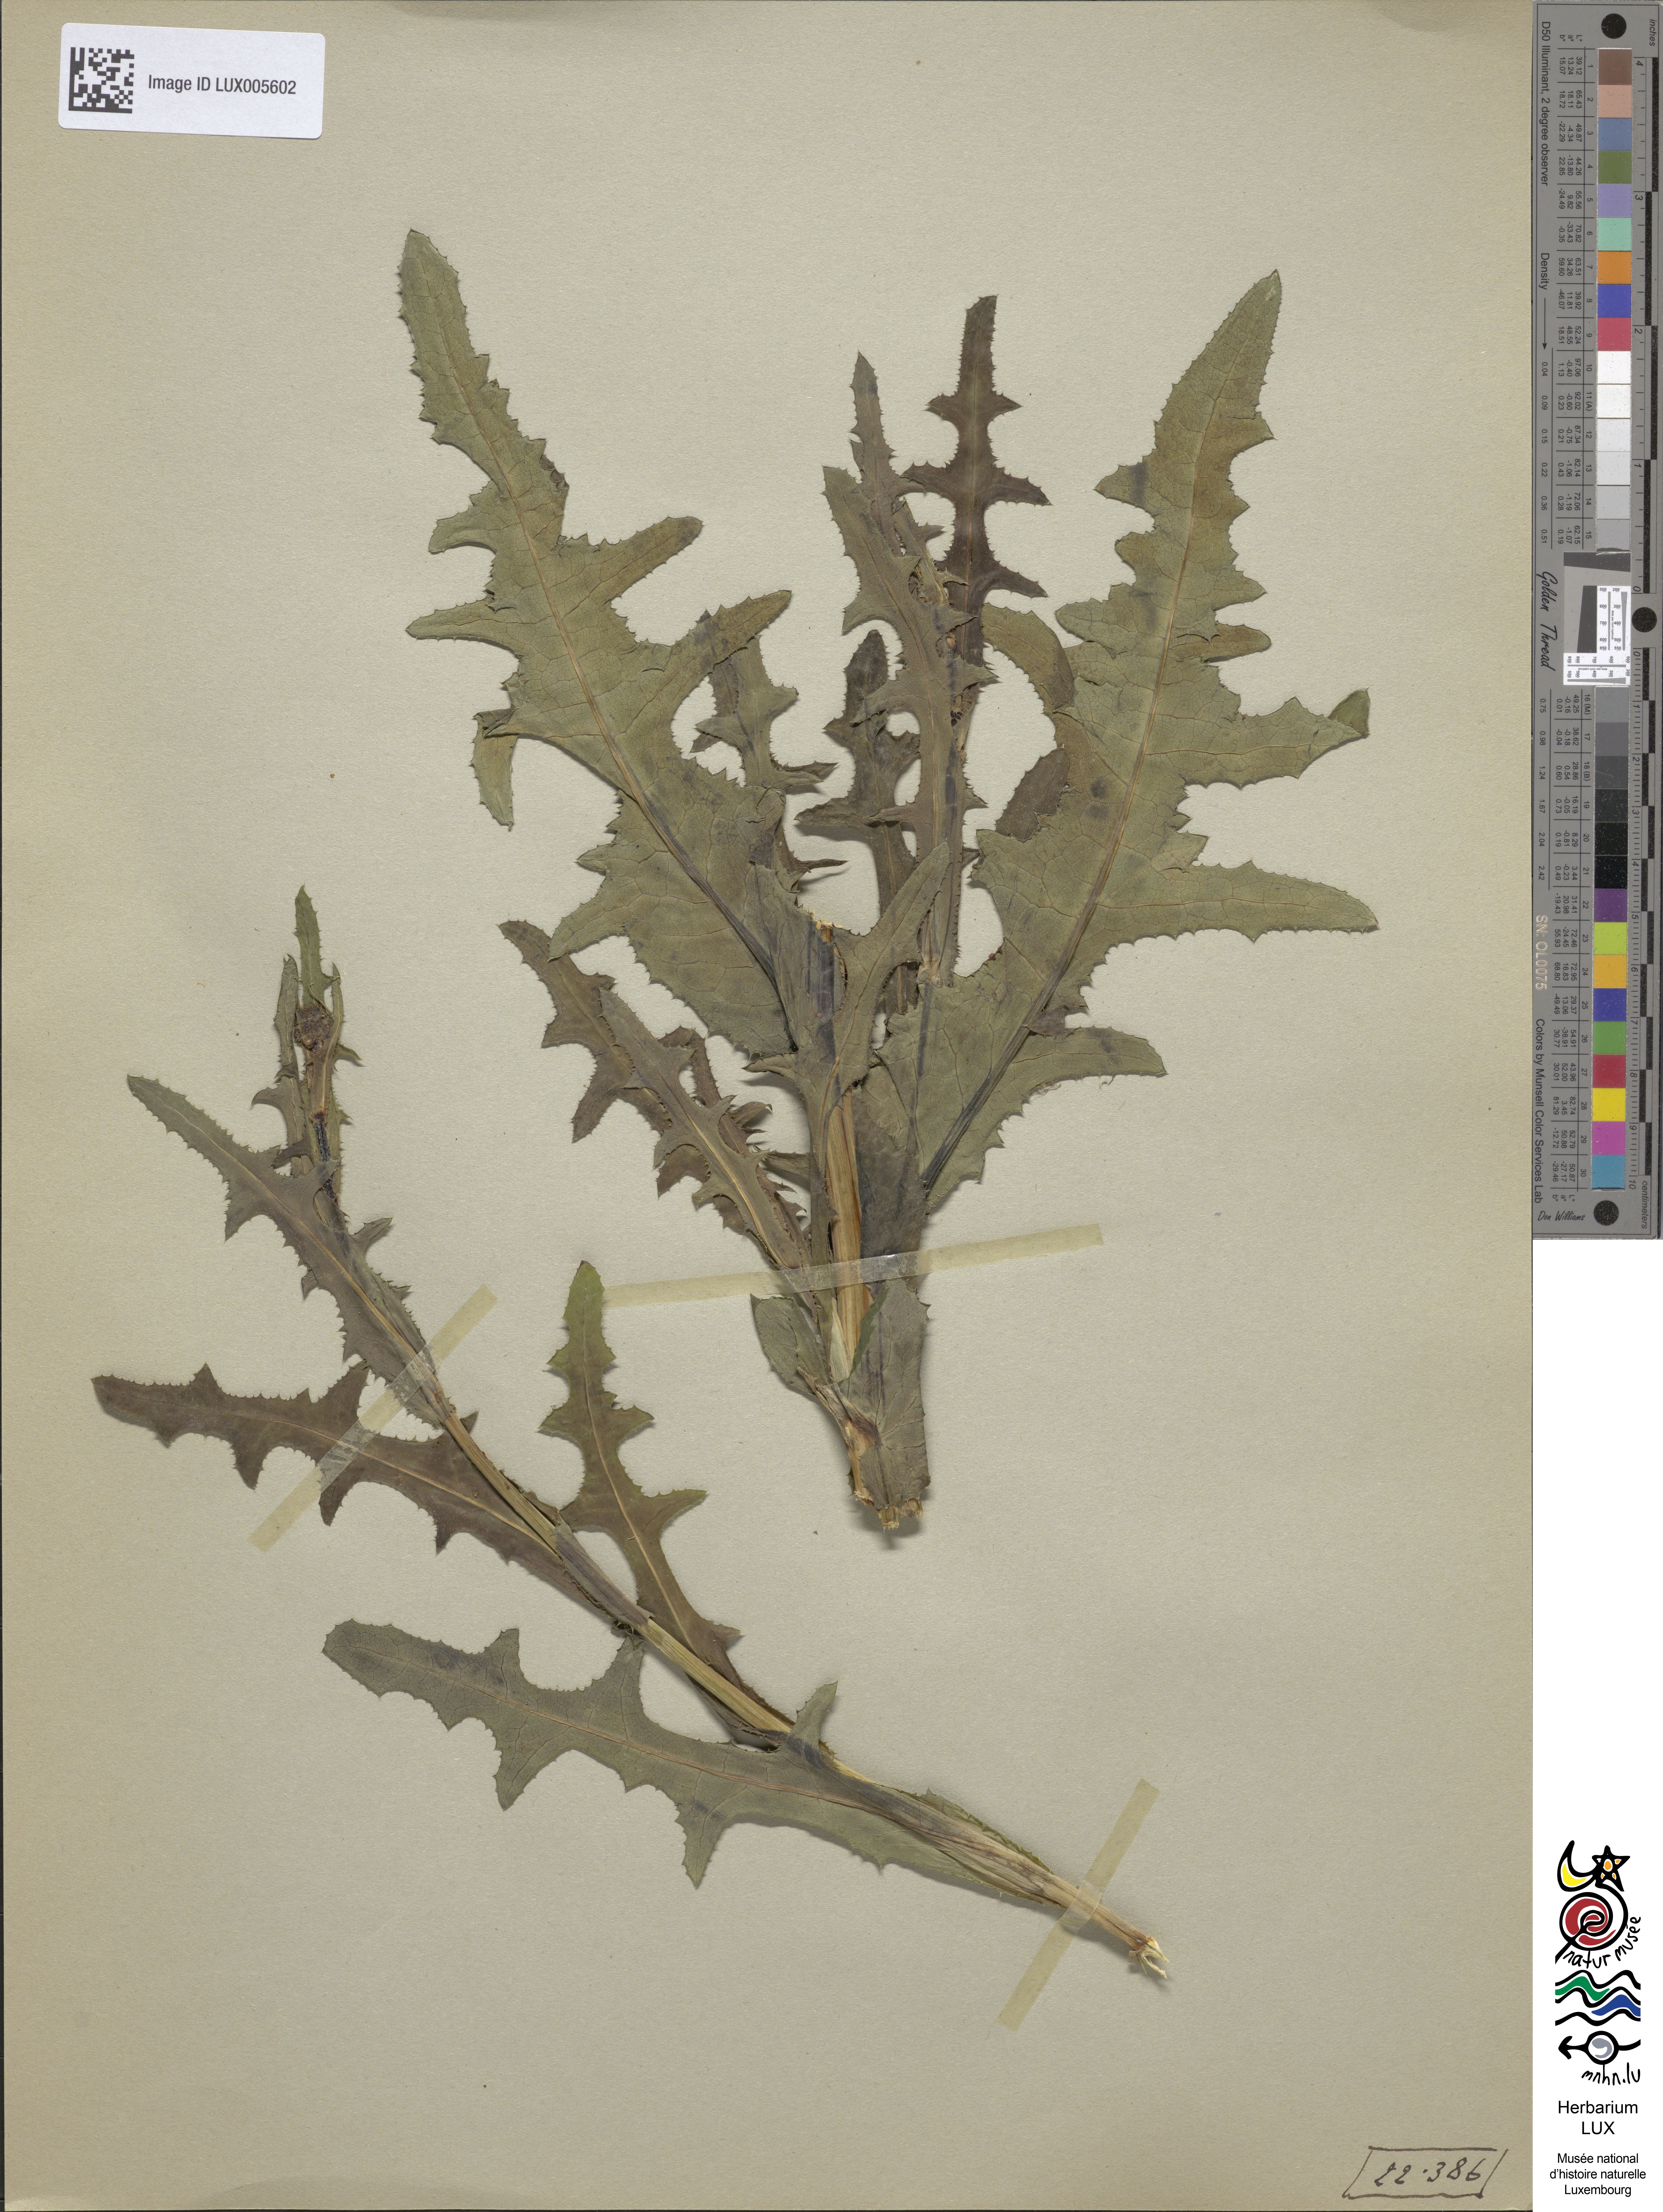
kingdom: Plantae
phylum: Tracheophyta
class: Magnoliopsida
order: Asterales
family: Asteraceae
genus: Sonchus
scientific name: Sonchus arvensis
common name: Perennial sow-thistle
